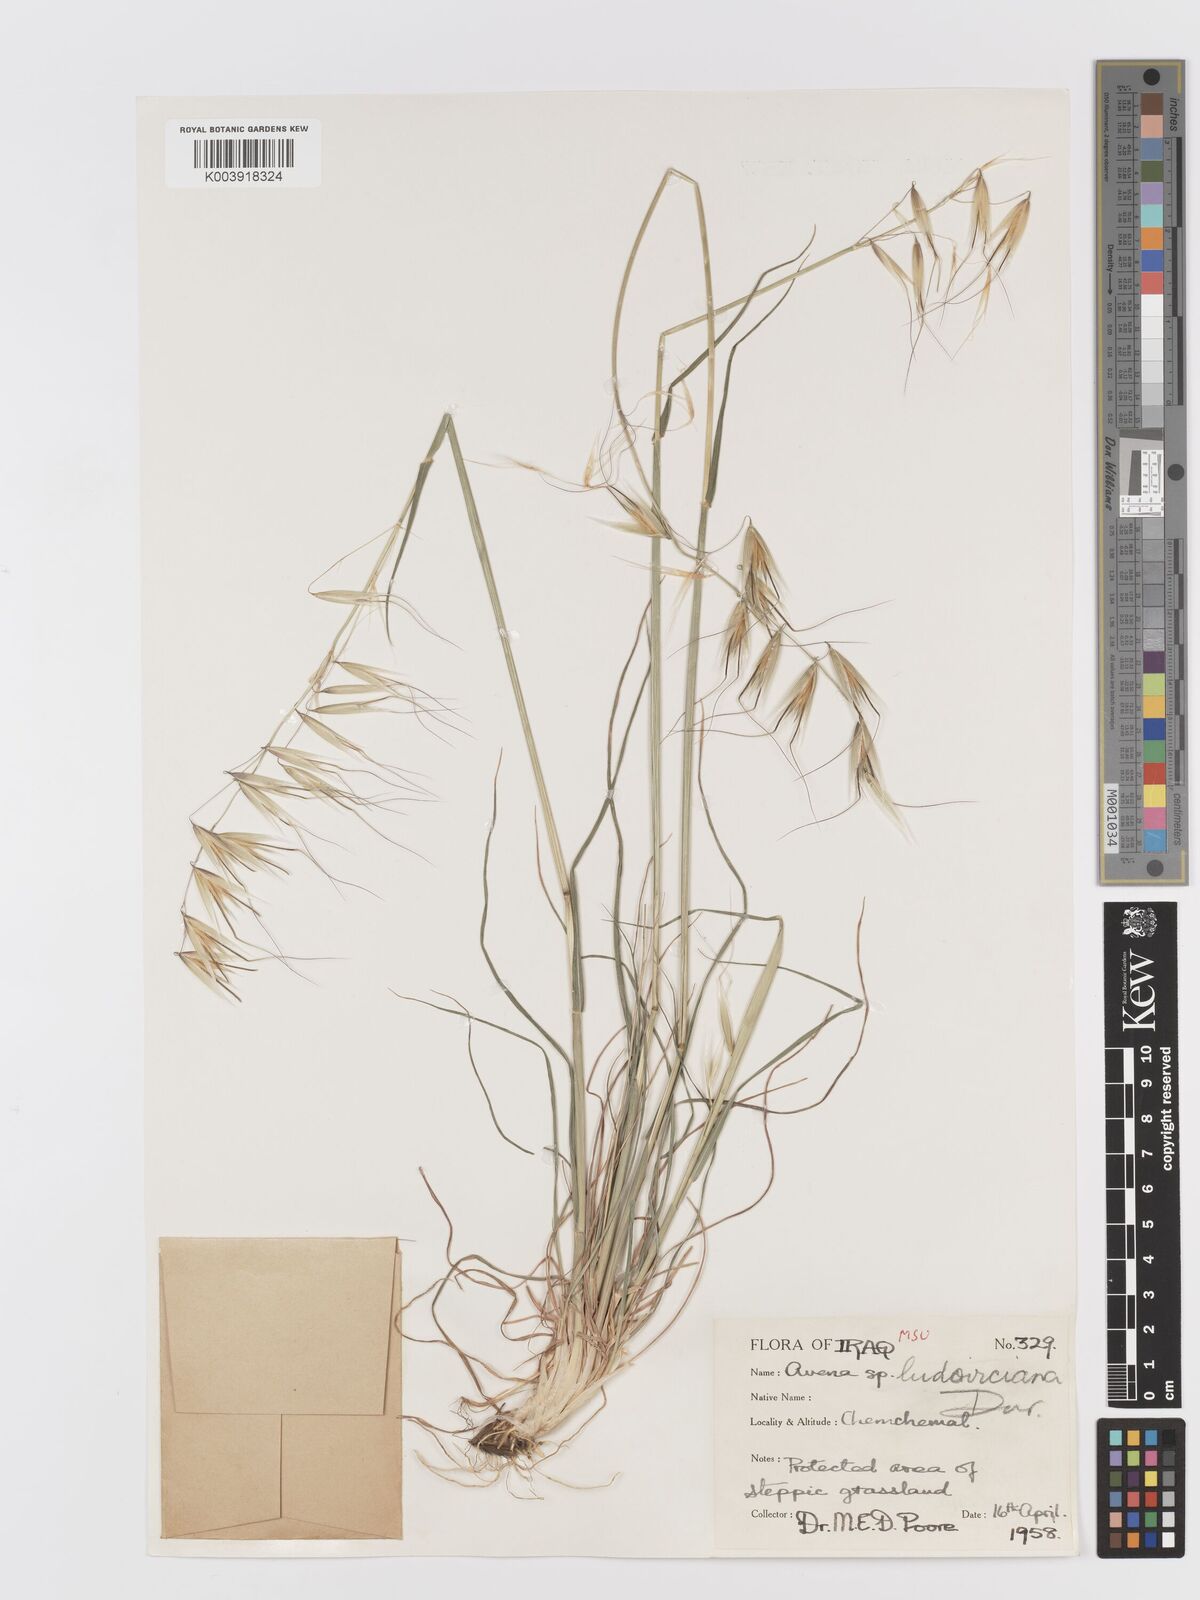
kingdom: Plantae
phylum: Tracheophyta
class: Liliopsida
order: Poales
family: Poaceae
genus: Avena
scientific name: Avena sterilis
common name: Animated oat
